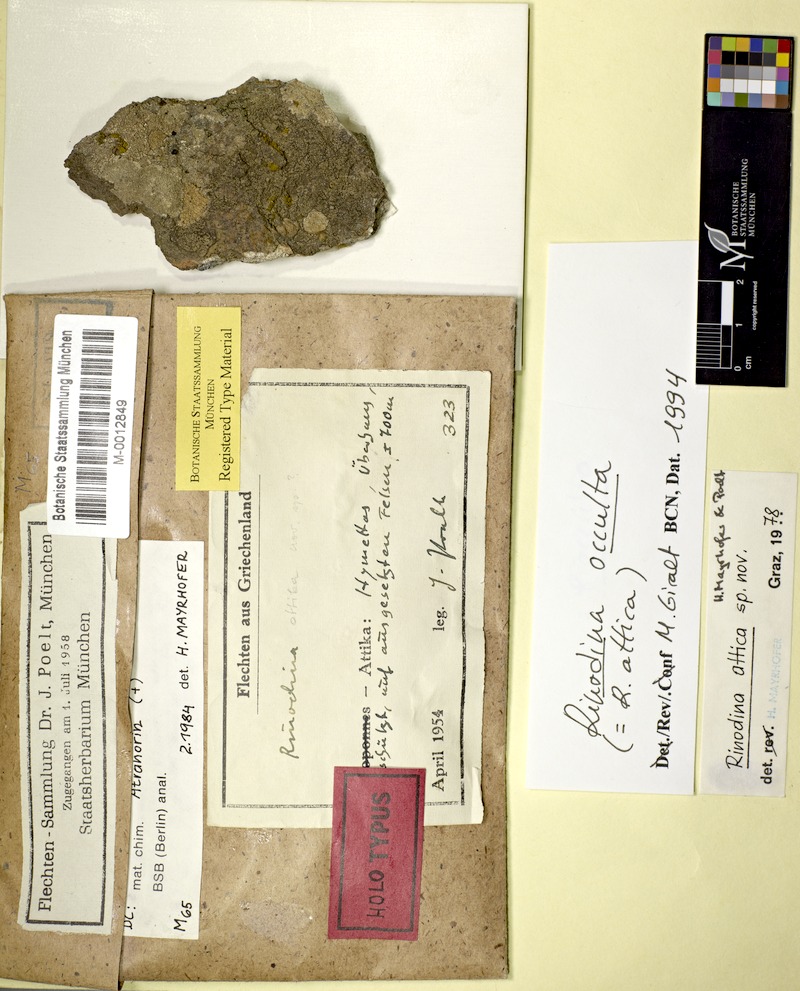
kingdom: Fungi
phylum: Ascomycota
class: Lecanoromycetes
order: Caliciales
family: Physciaceae
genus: Rinodina
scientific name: Rinodina occulta
